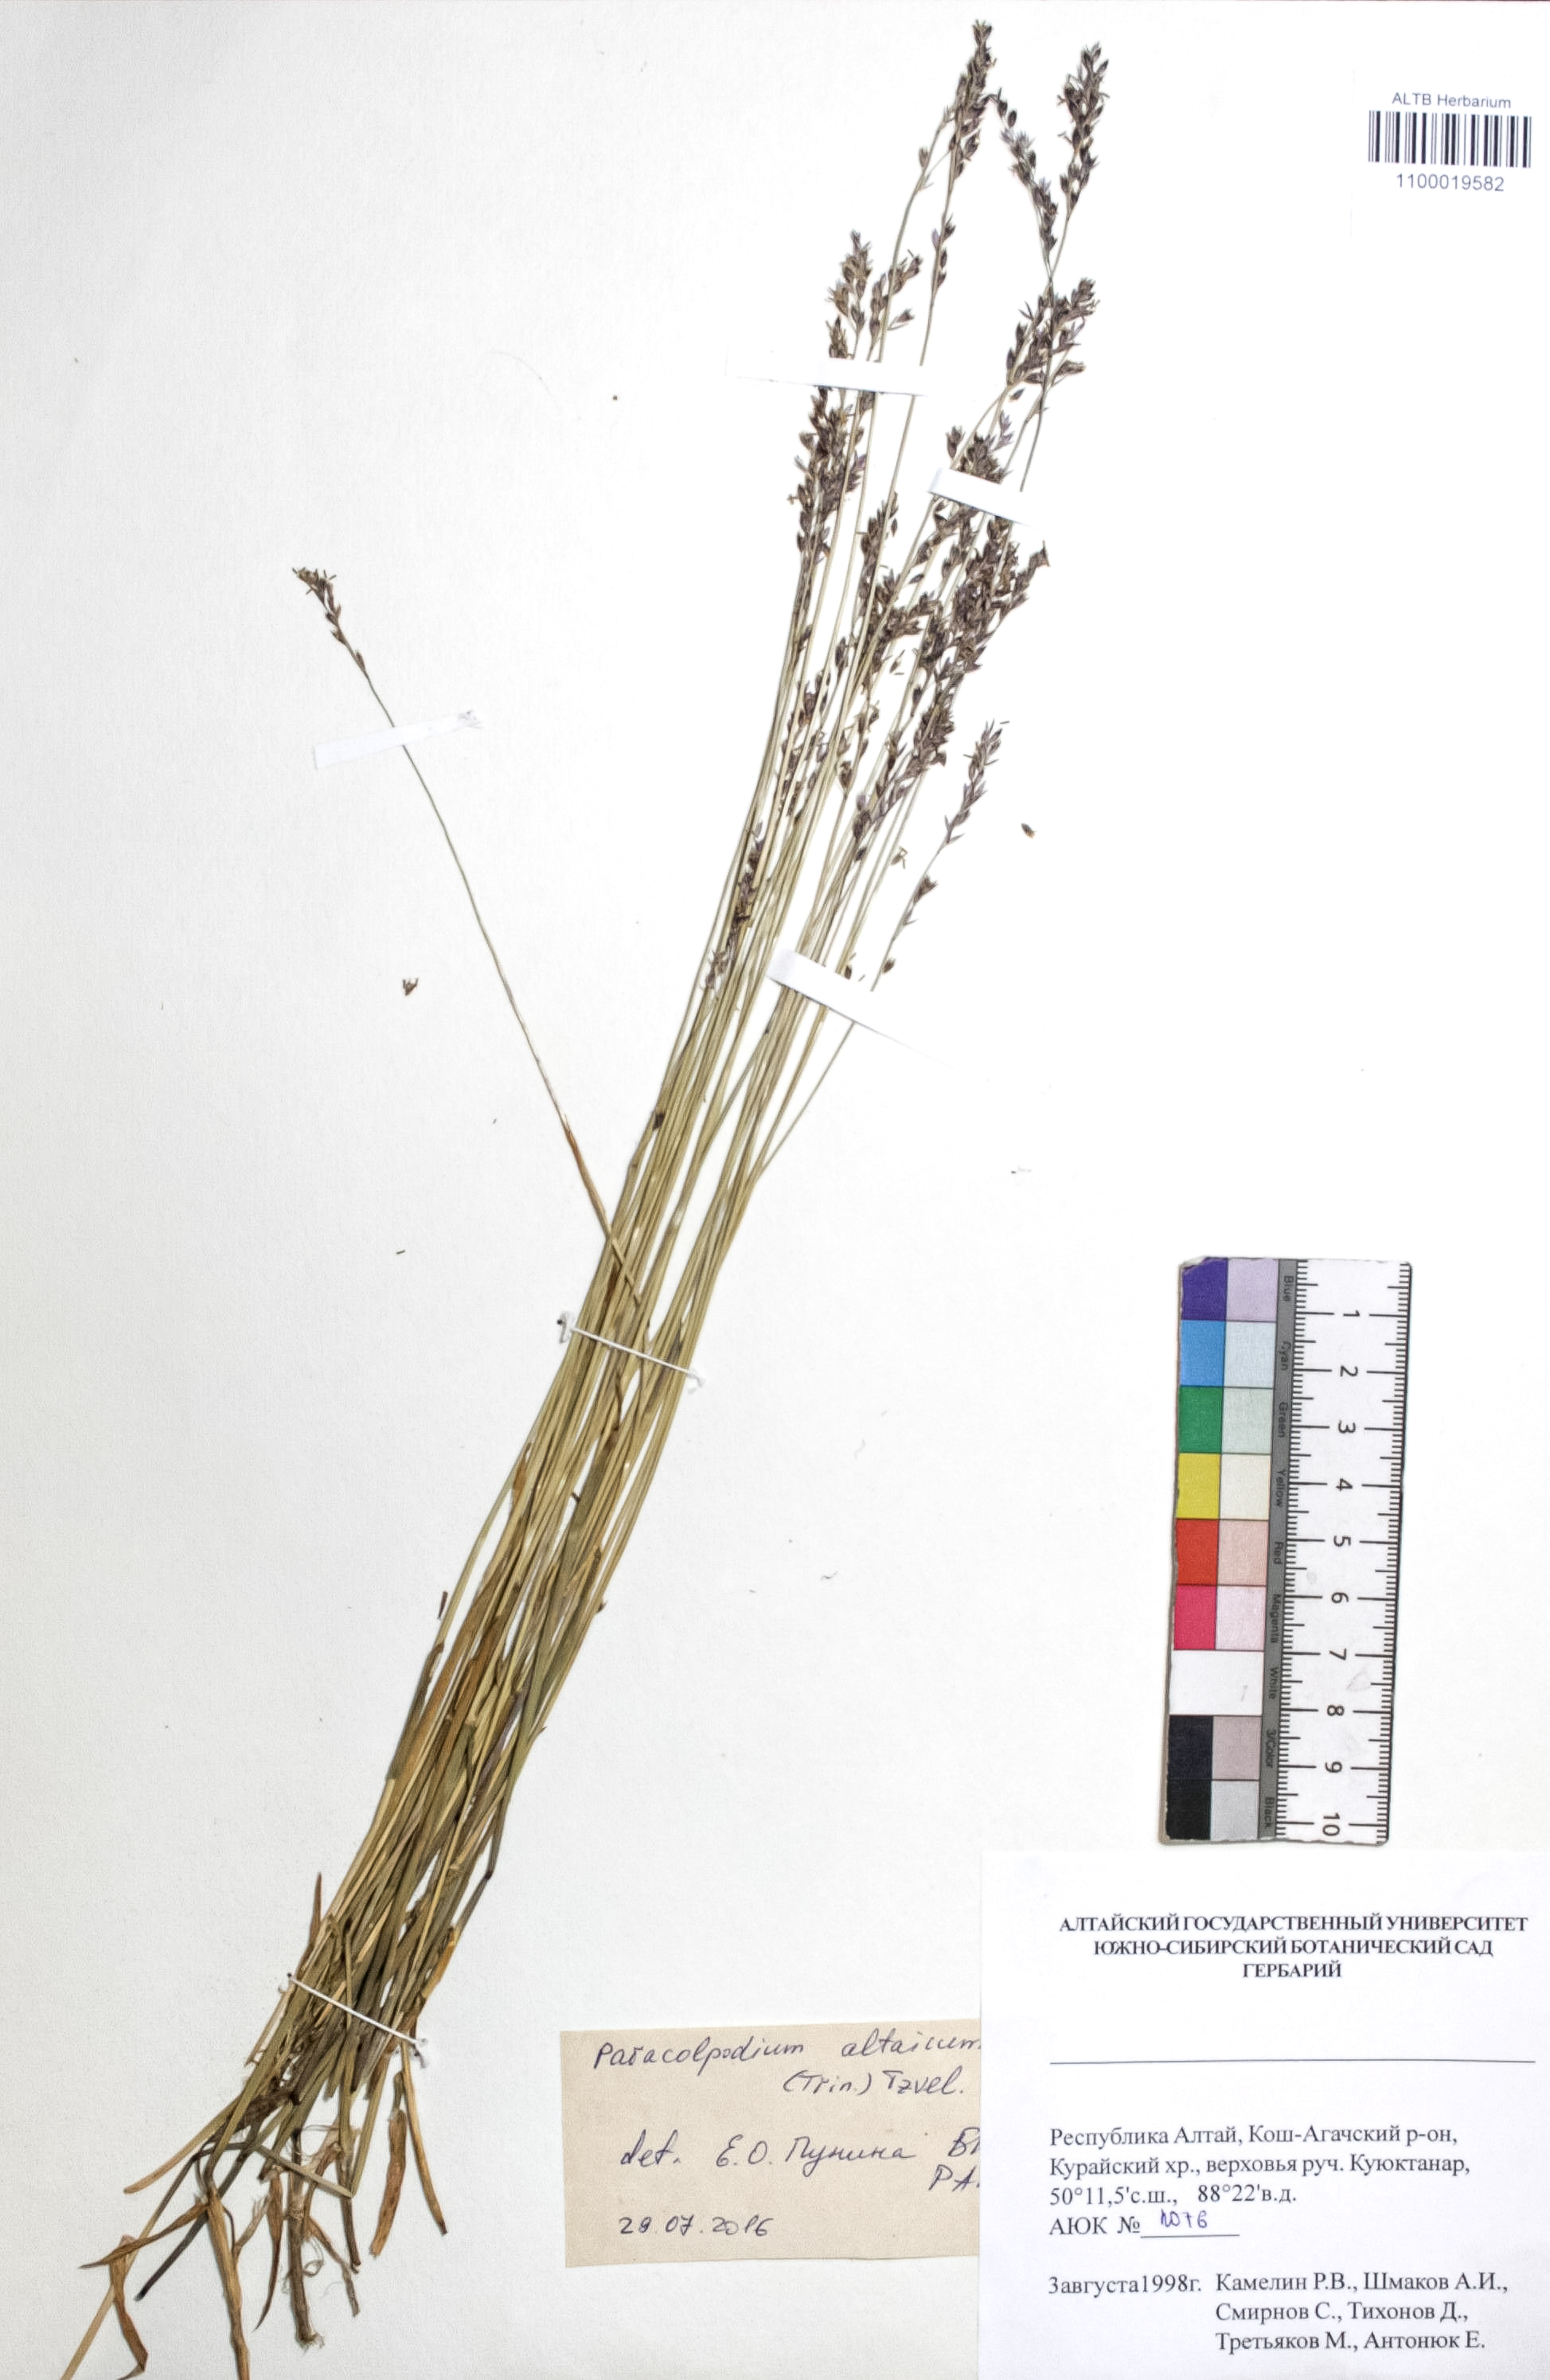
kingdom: Plantae
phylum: Tracheophyta
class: Liliopsida
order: Poales
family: Poaceae
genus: Paracolpodium
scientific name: Paracolpodium altaicum
